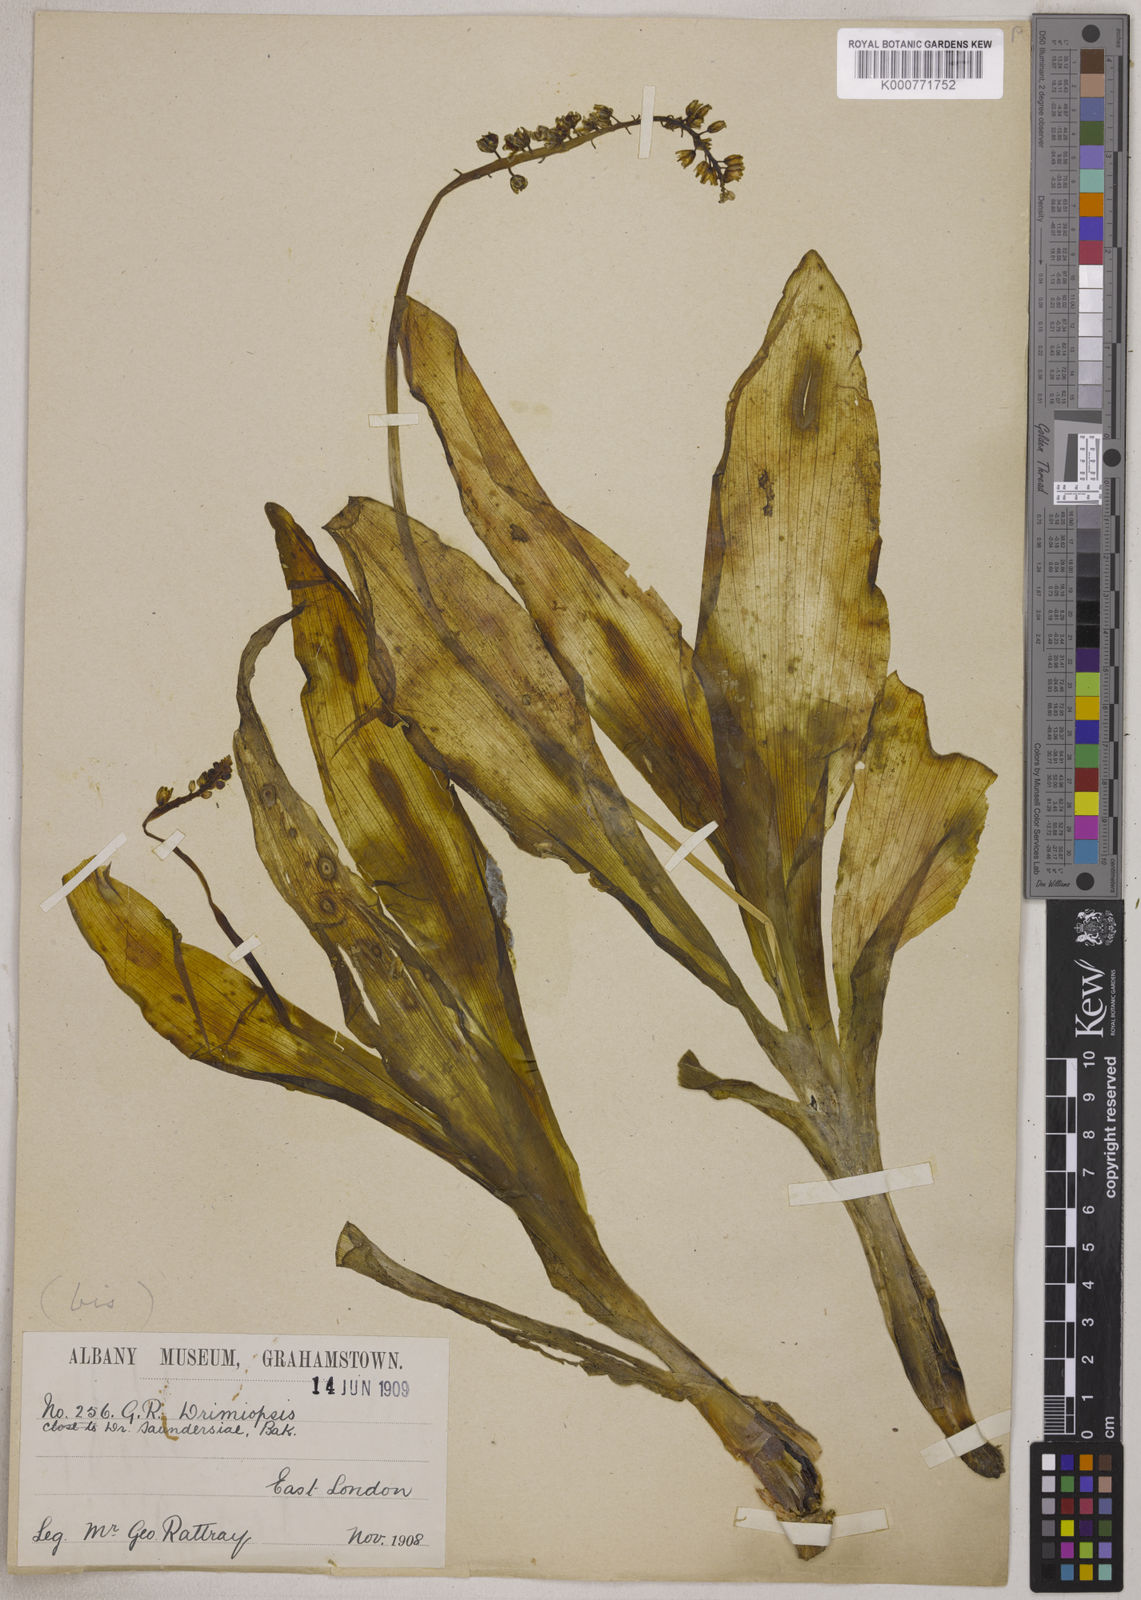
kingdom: Plantae
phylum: Tracheophyta
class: Liliopsida
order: Asparagales
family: Asparagaceae
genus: Resnova
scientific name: Resnova humifusa
